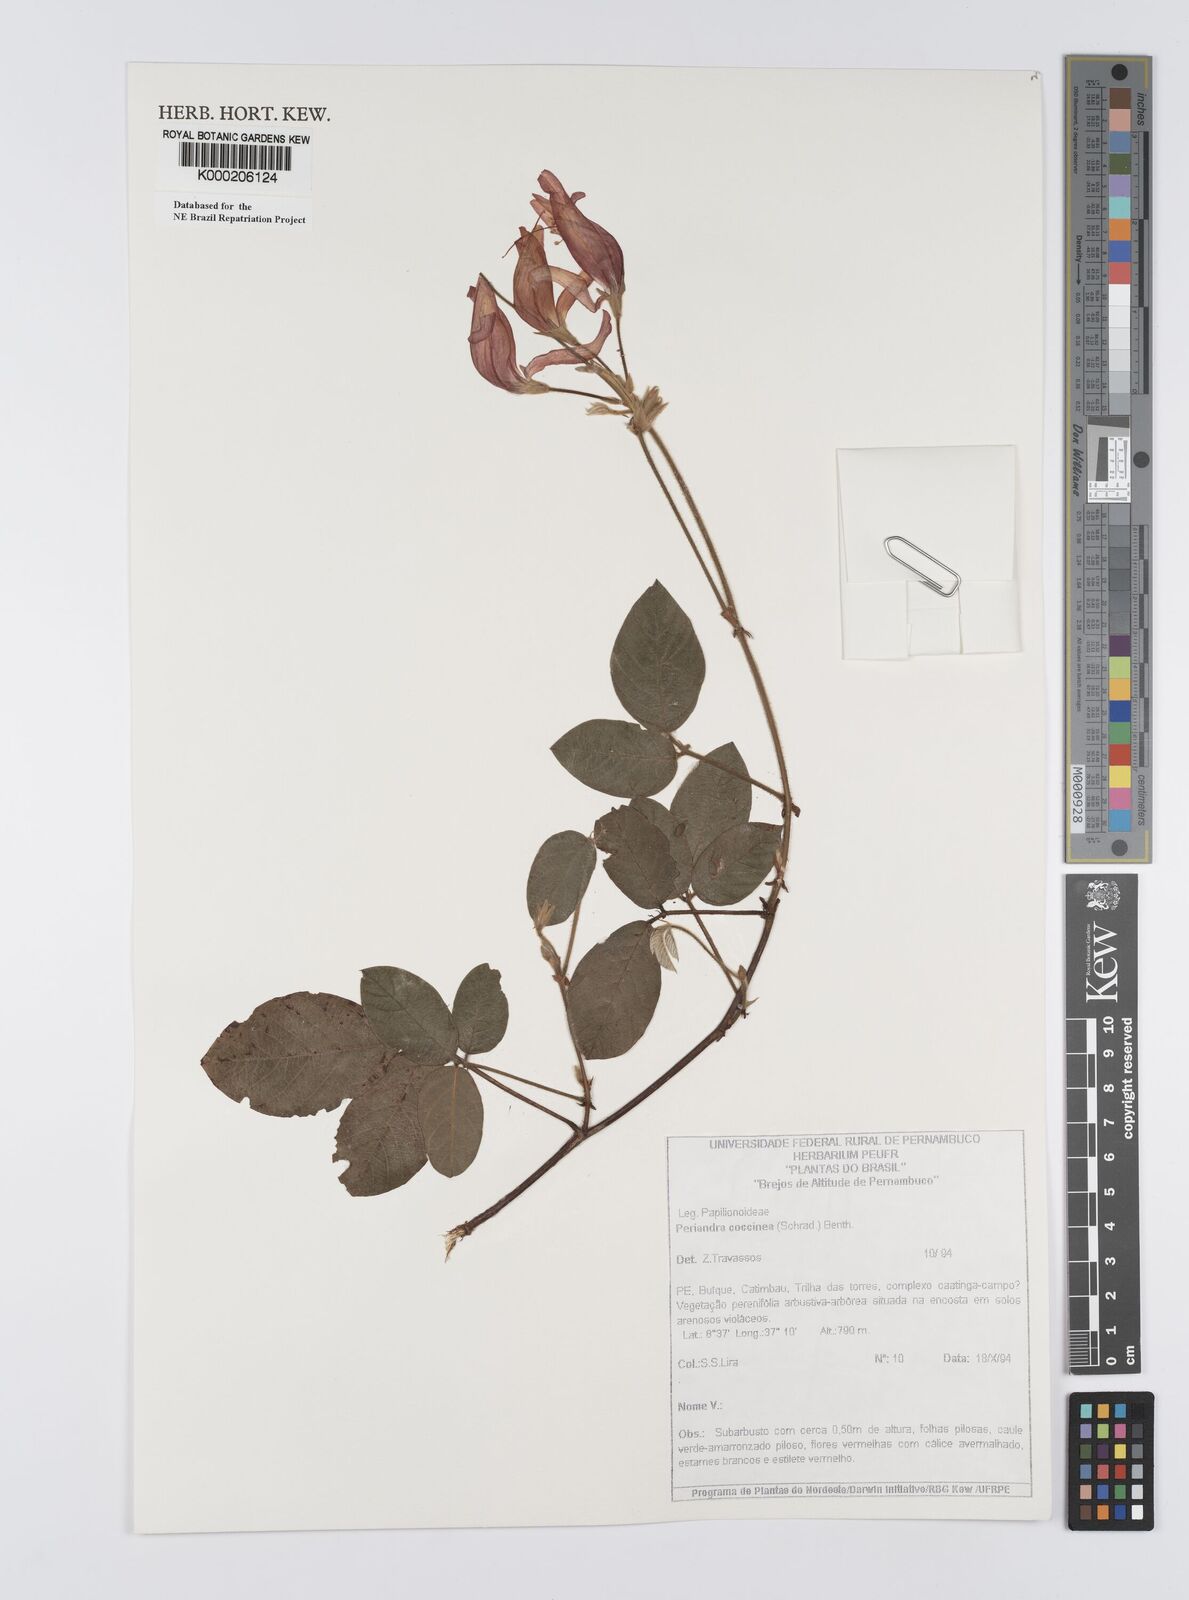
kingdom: Plantae
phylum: Tracheophyta
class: Magnoliopsida
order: Fabales
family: Fabaceae
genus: Periandra
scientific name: Periandra coccinea
